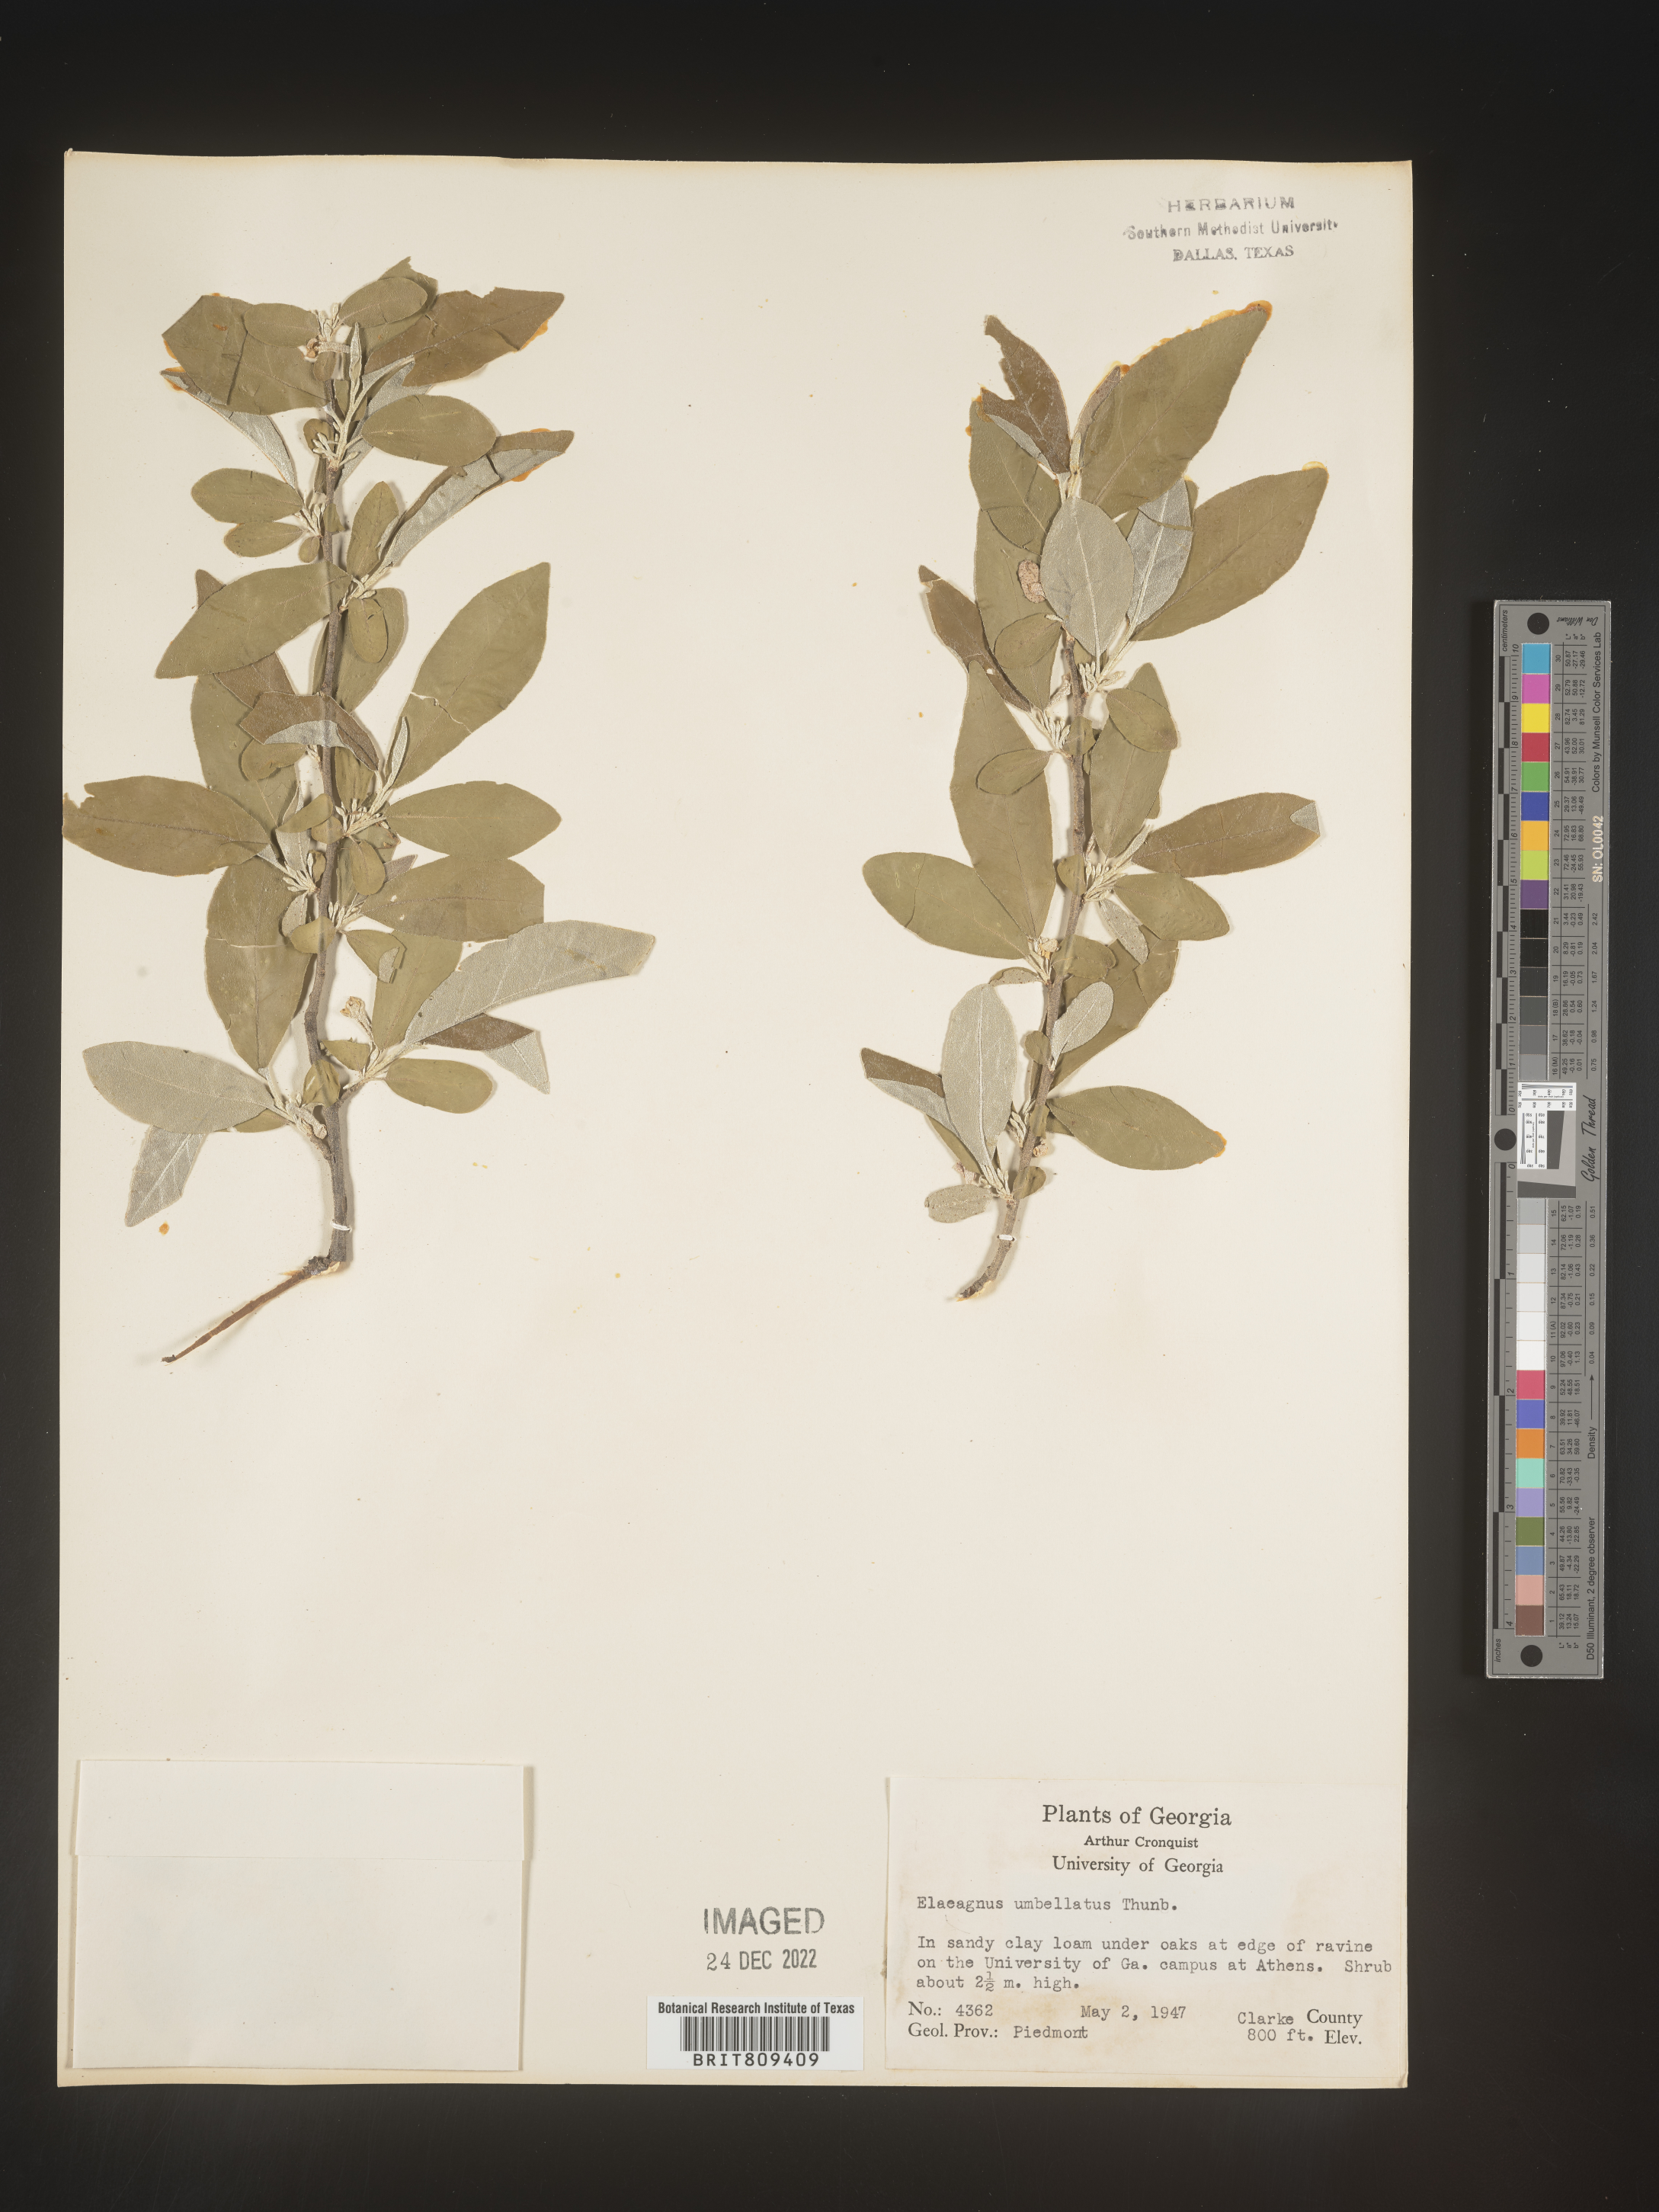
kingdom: Plantae
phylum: Tracheophyta
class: Magnoliopsida
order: Rosales
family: Elaeagnaceae
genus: Elaeagnus
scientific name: Elaeagnus
